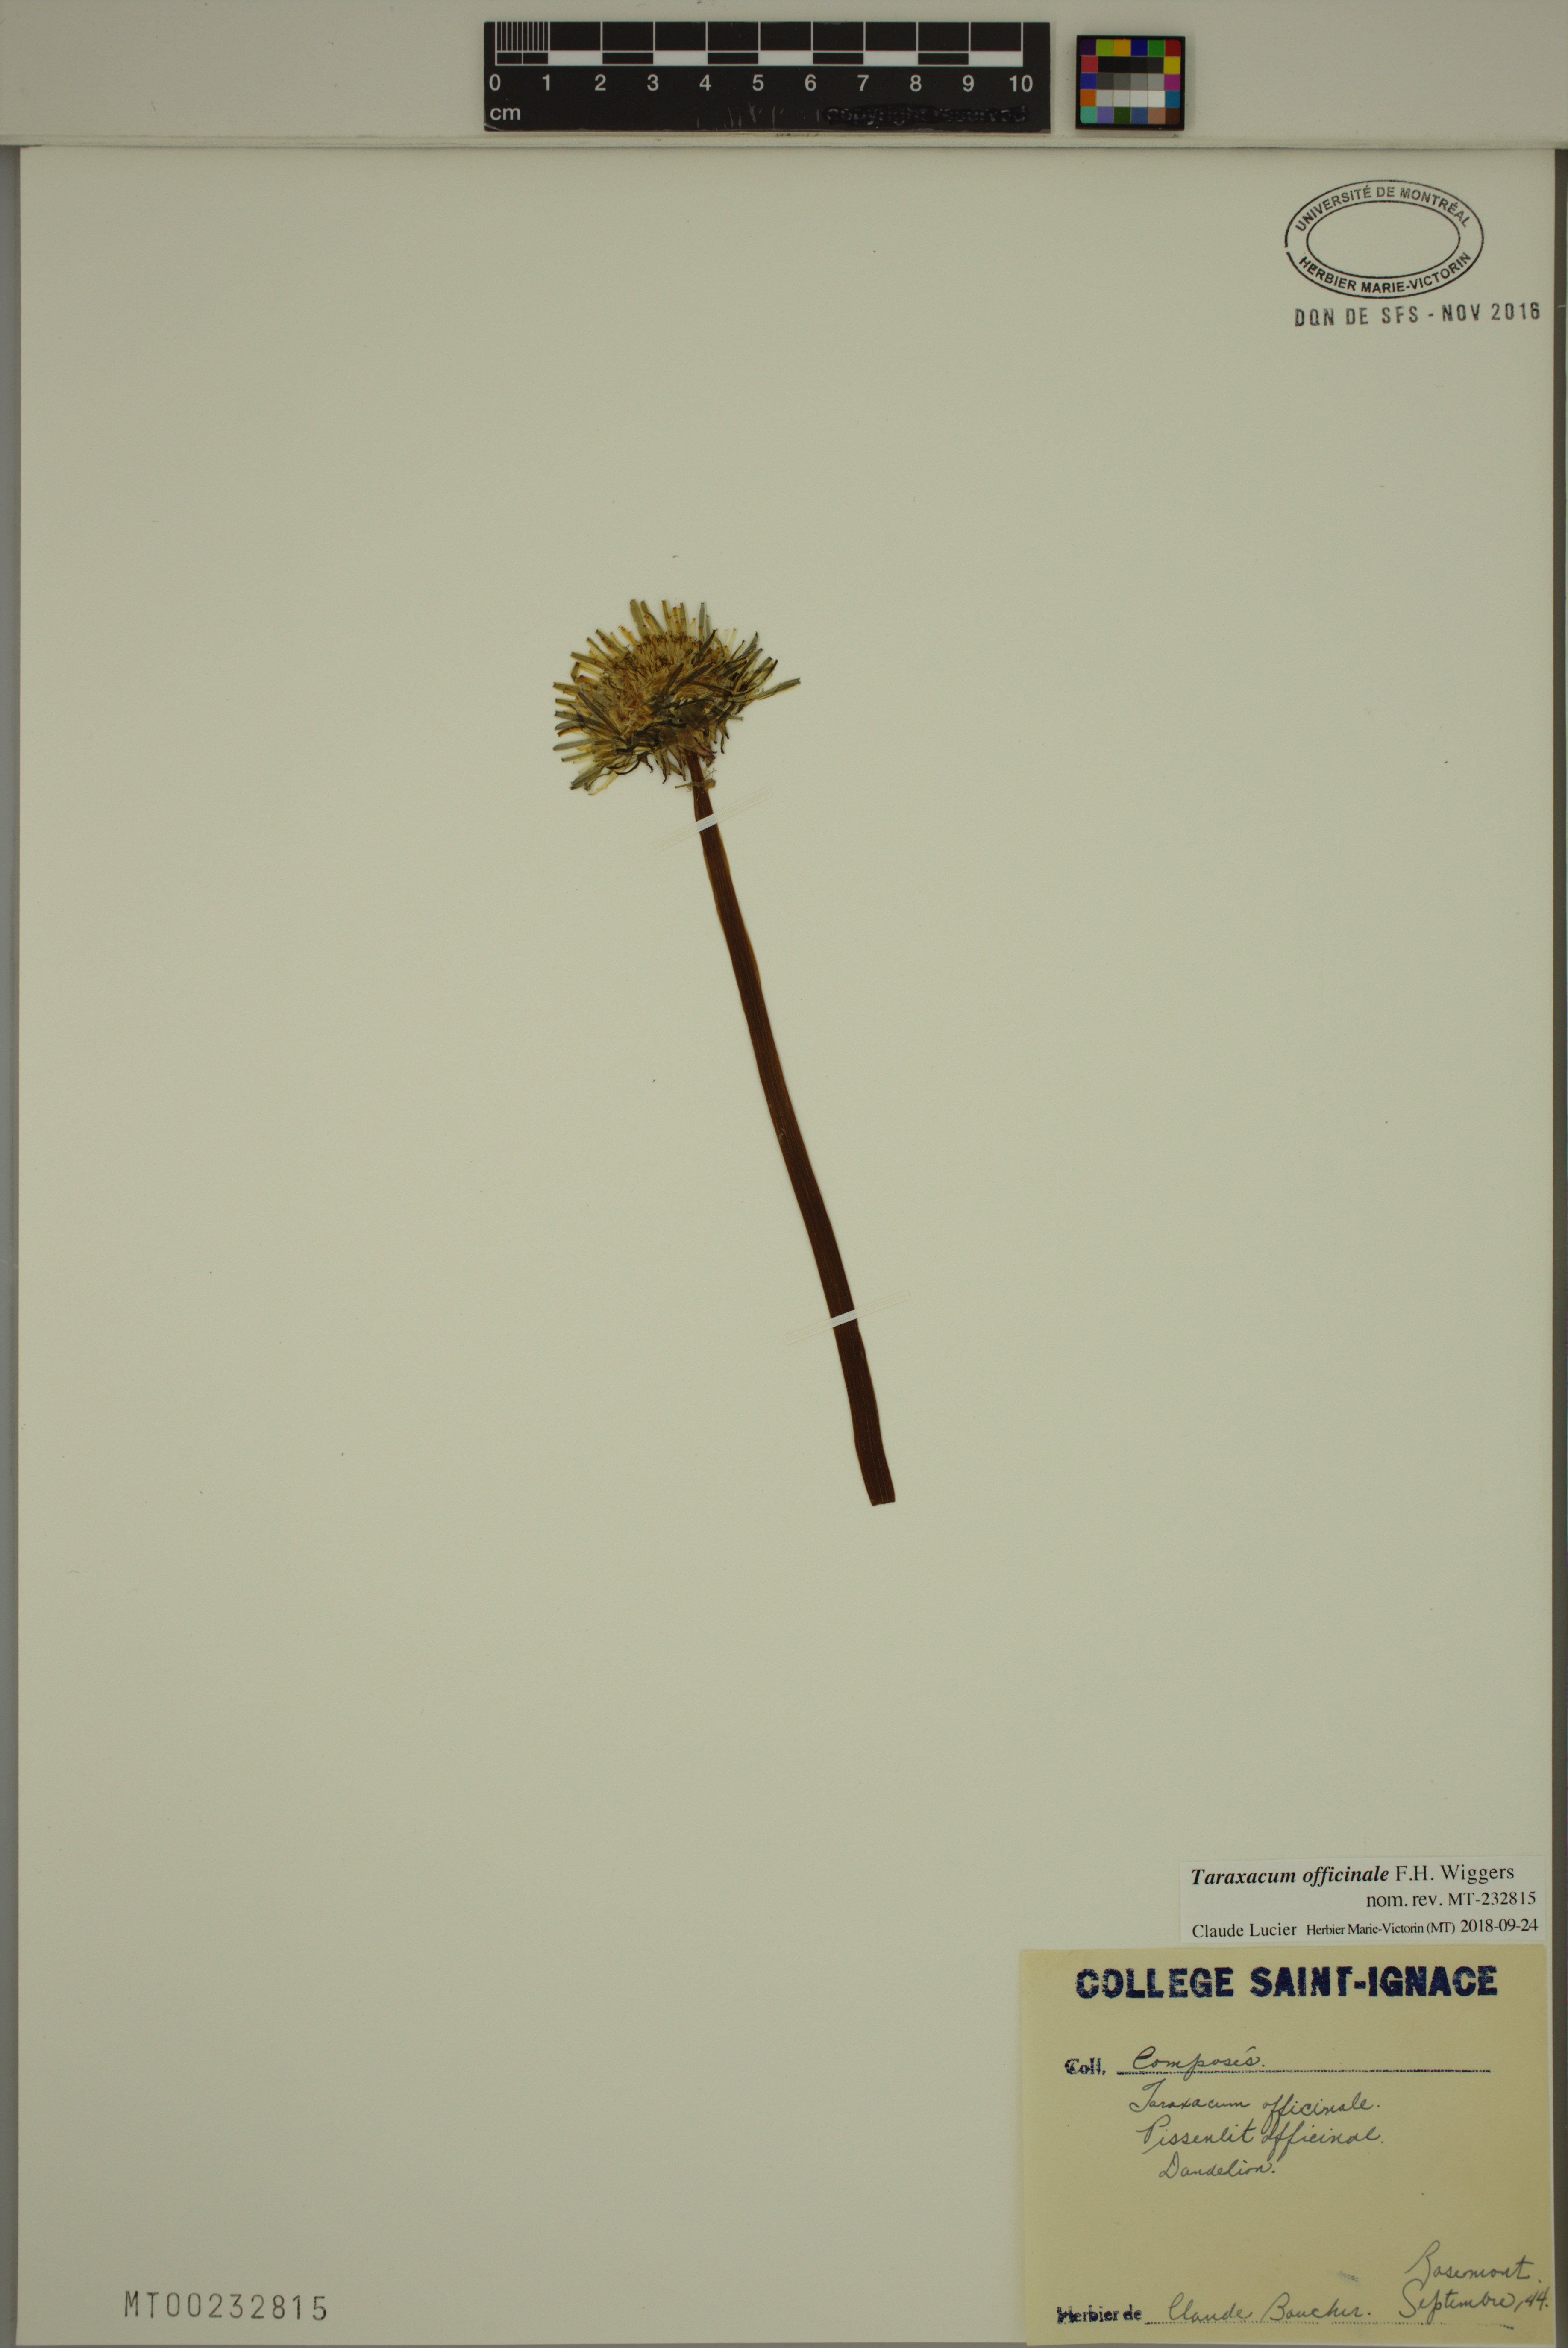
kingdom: Plantae
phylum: Tracheophyta
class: Magnoliopsida
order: Asterales
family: Asteraceae
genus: Taraxacum
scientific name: Taraxacum officinale
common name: Common dandelion
